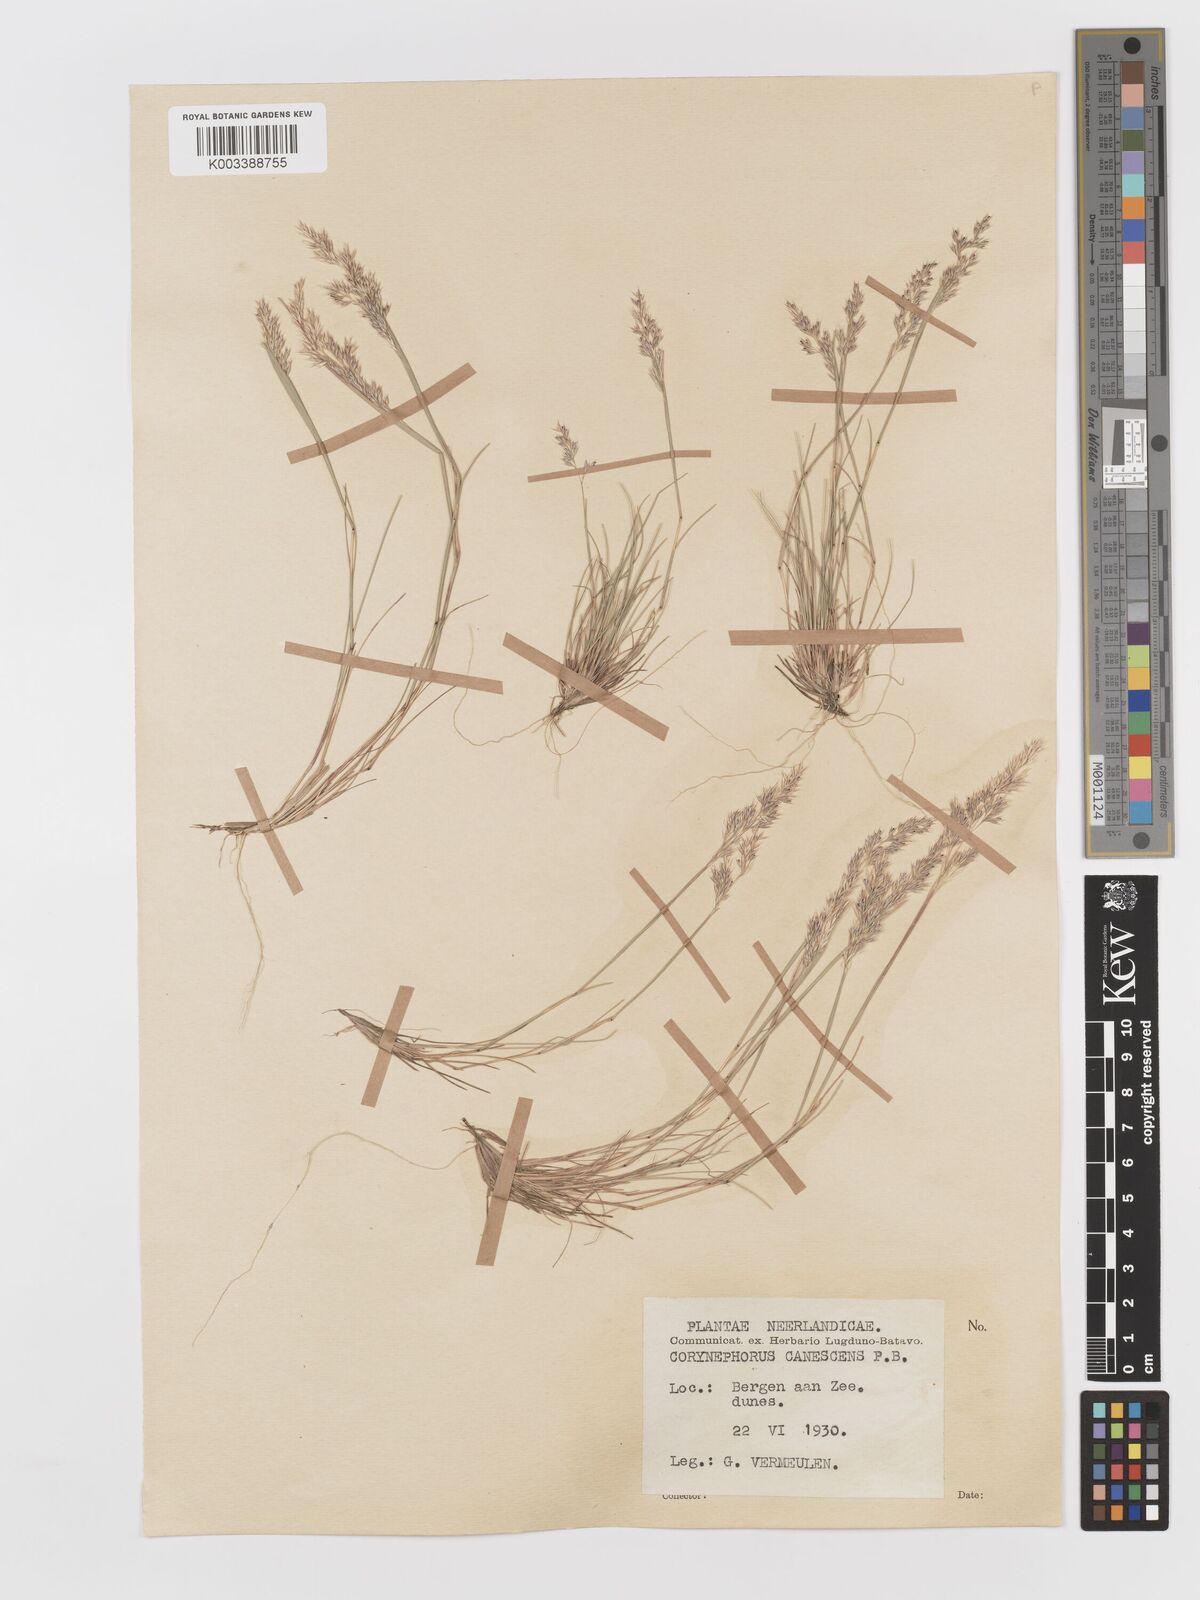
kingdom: Plantae
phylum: Tracheophyta
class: Liliopsida
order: Poales
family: Poaceae
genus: Corynephorus
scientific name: Corynephorus canescens
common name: Grey hair-grass
